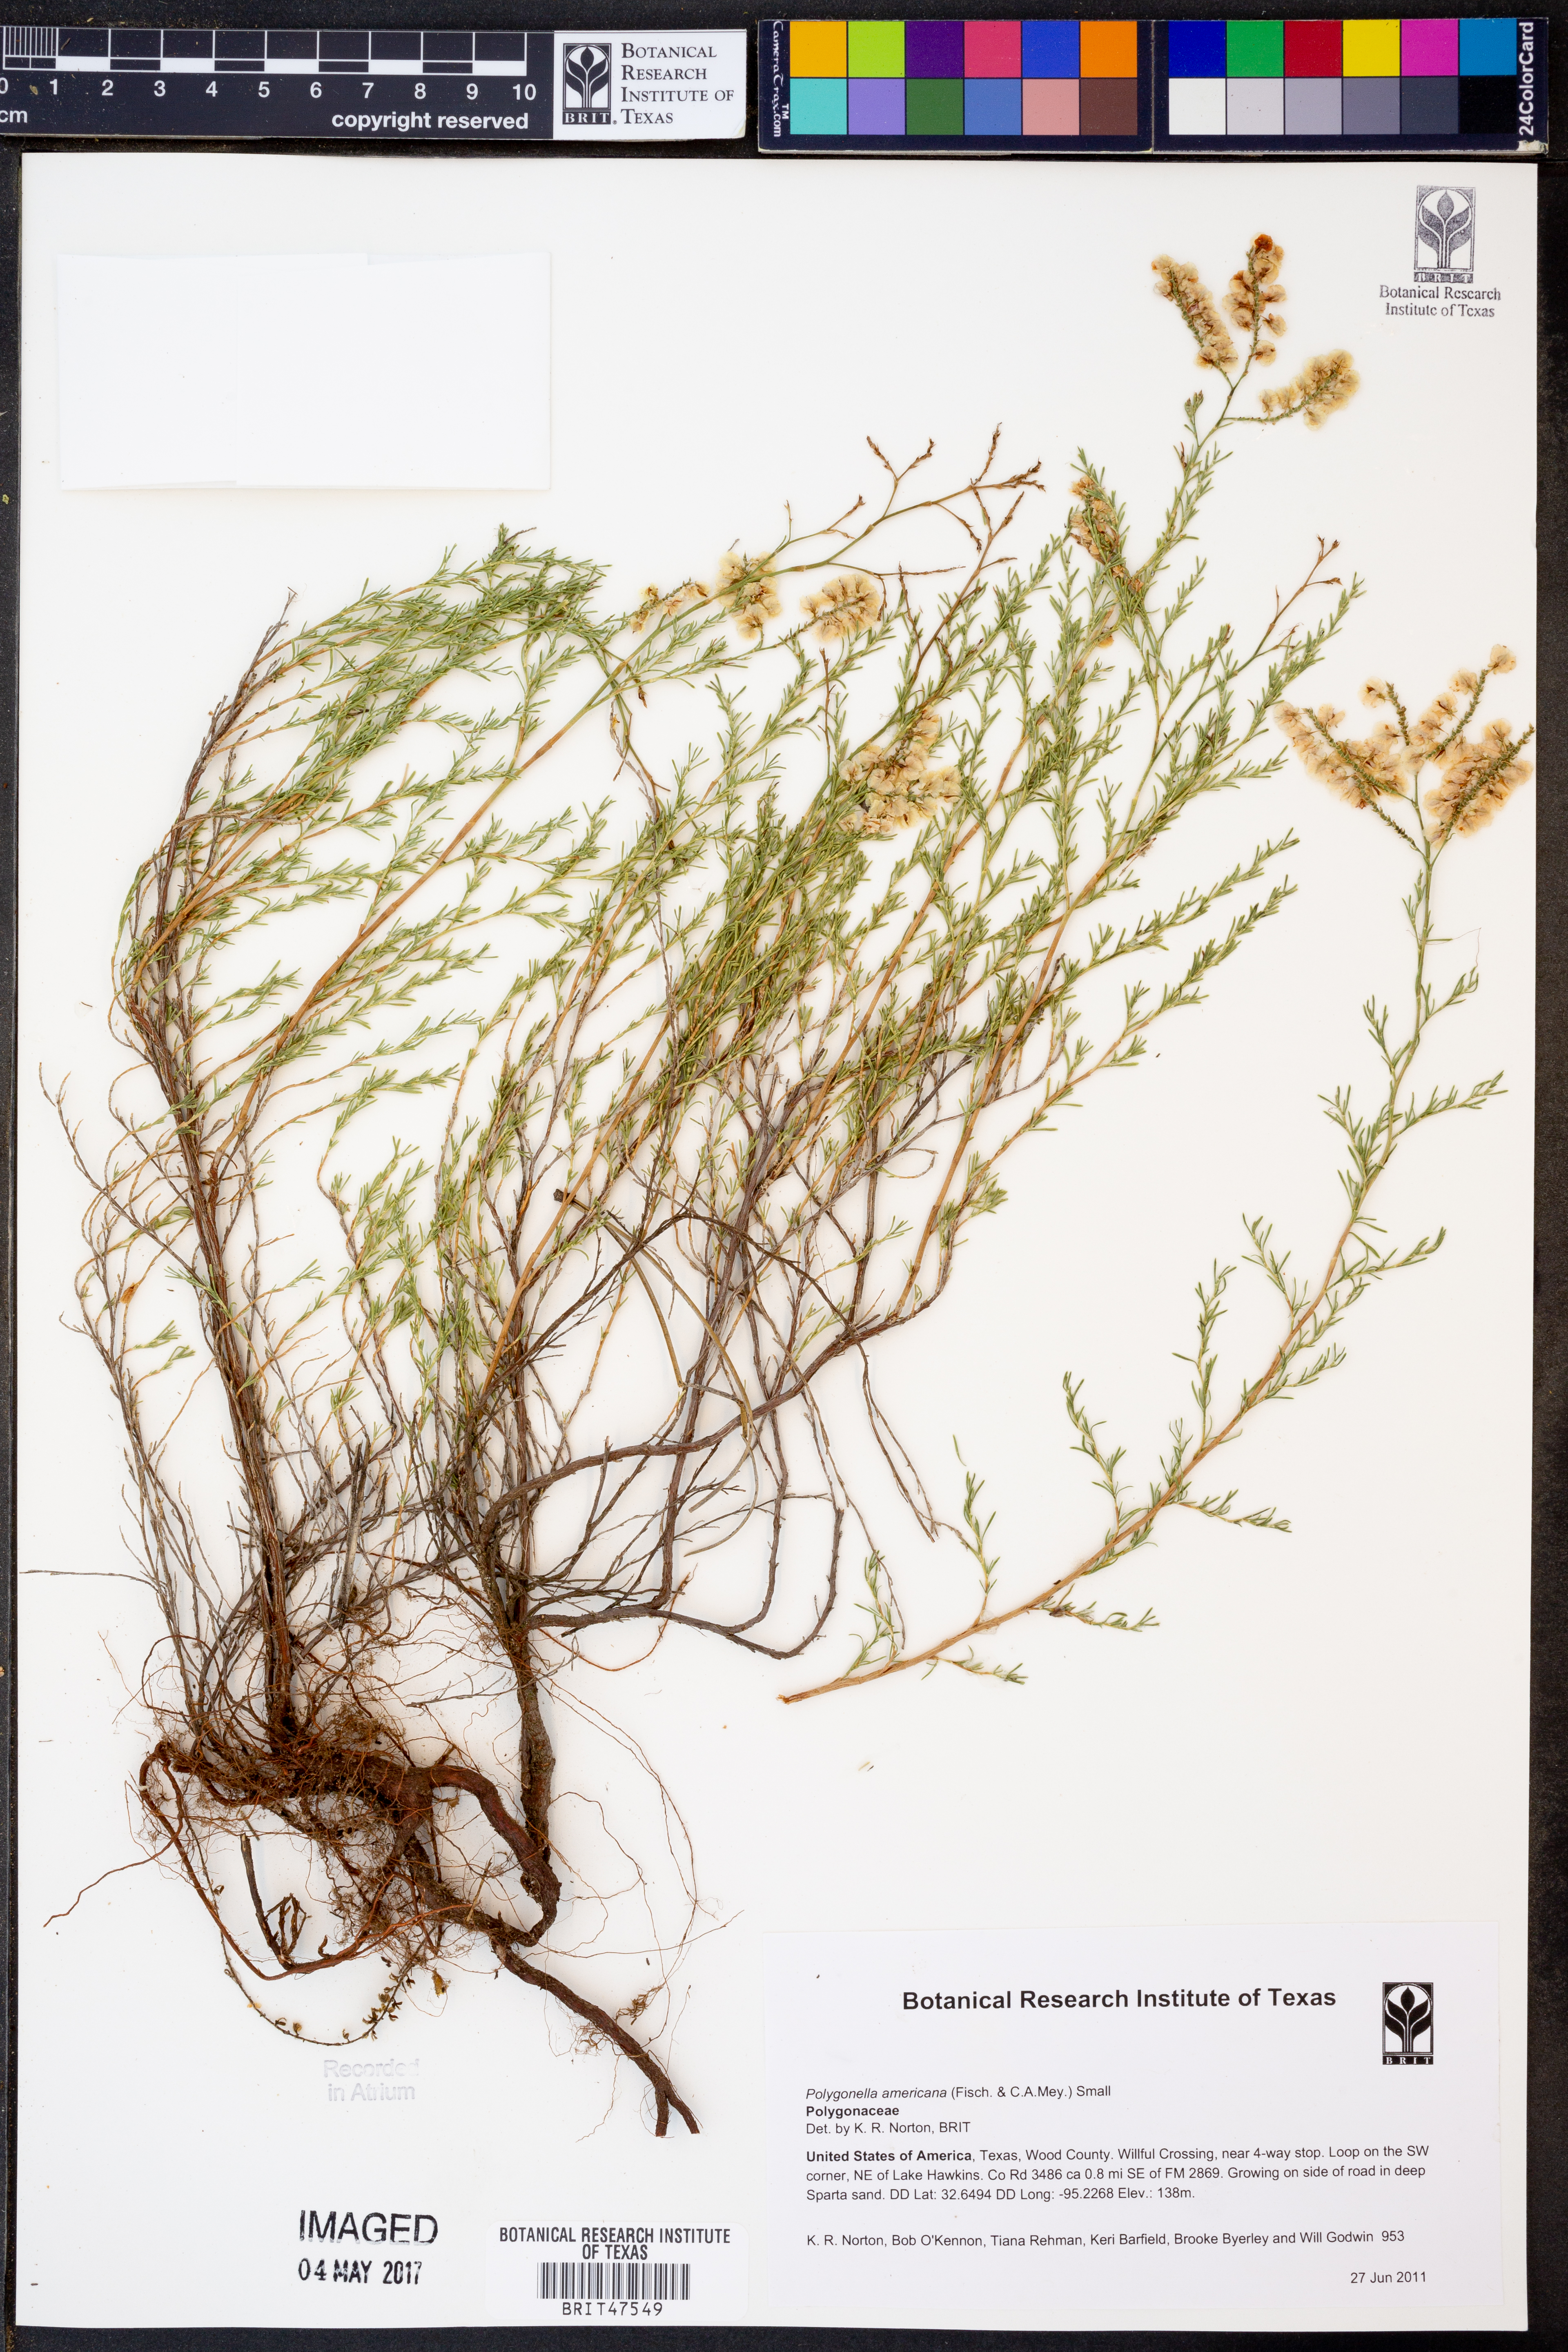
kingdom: Plantae
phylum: Tracheophyta
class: Magnoliopsida
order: Caryophyllales
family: Polygonaceae
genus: Polygonella
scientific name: Polygonella americana
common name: Southern jointweed
